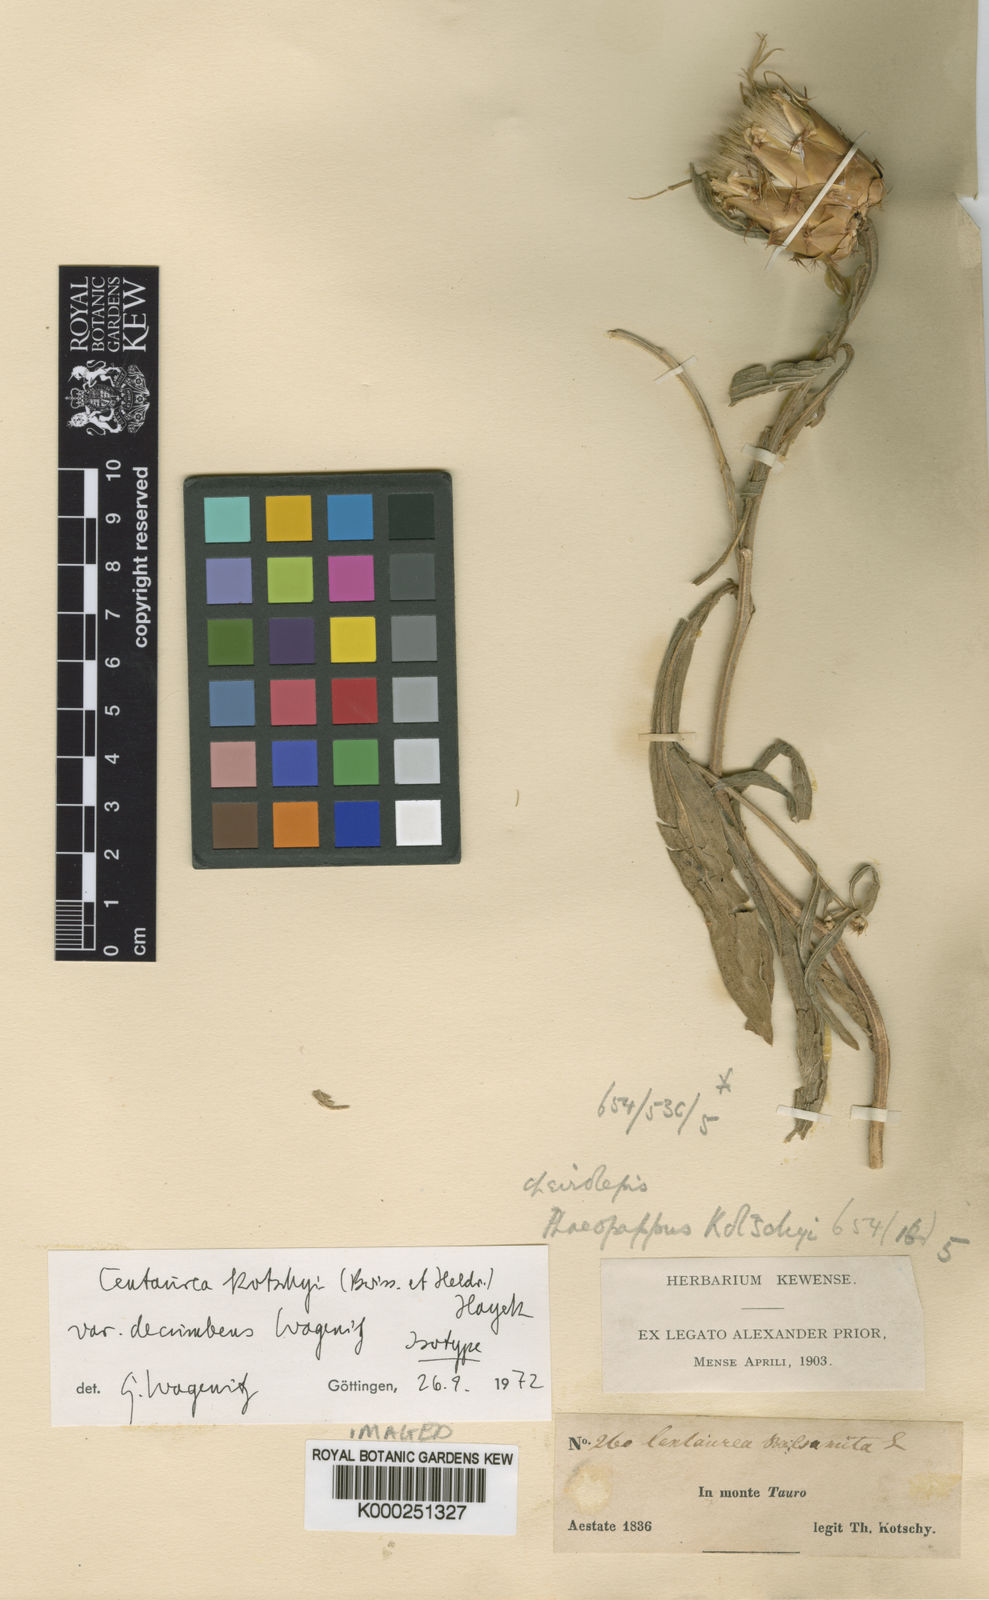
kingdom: Plantae
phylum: Tracheophyta
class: Magnoliopsida
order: Asterales
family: Asteraceae
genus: Centaurea
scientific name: Centaurea kotschyi
